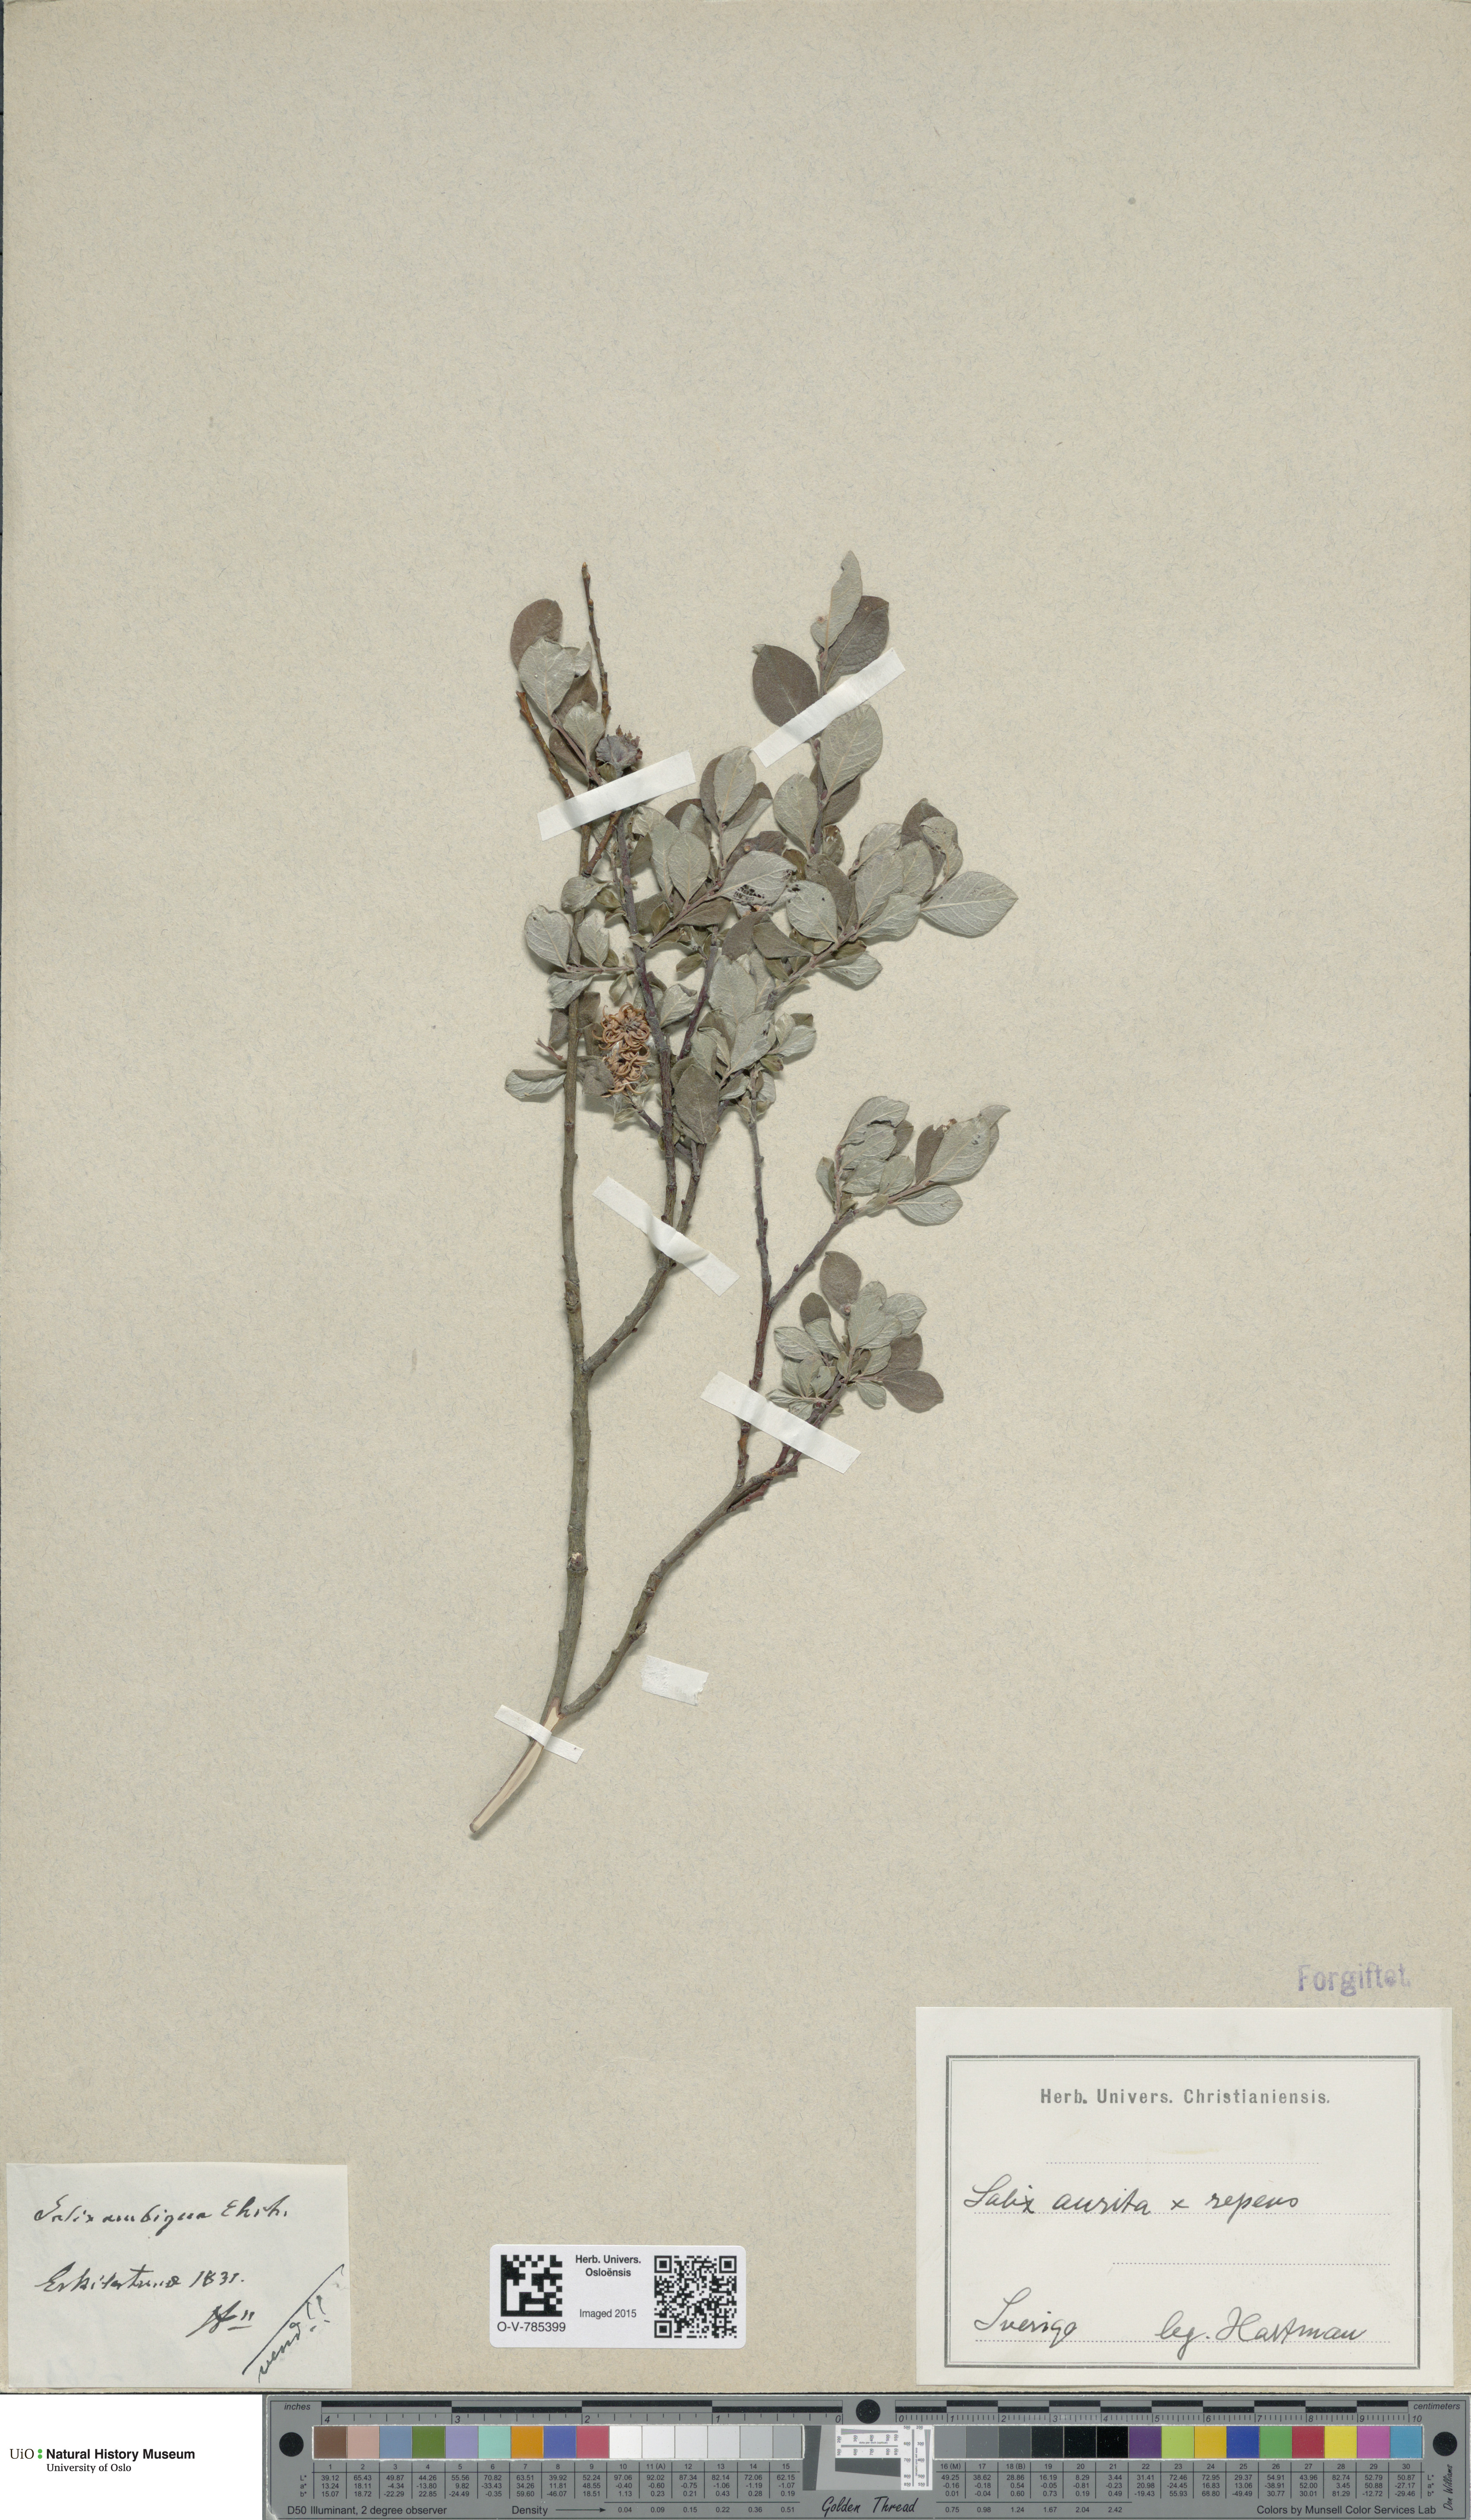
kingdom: Plantae
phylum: Tracheophyta
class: Magnoliopsida
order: Malpighiales
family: Salicaceae
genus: Salix
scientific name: Salix
